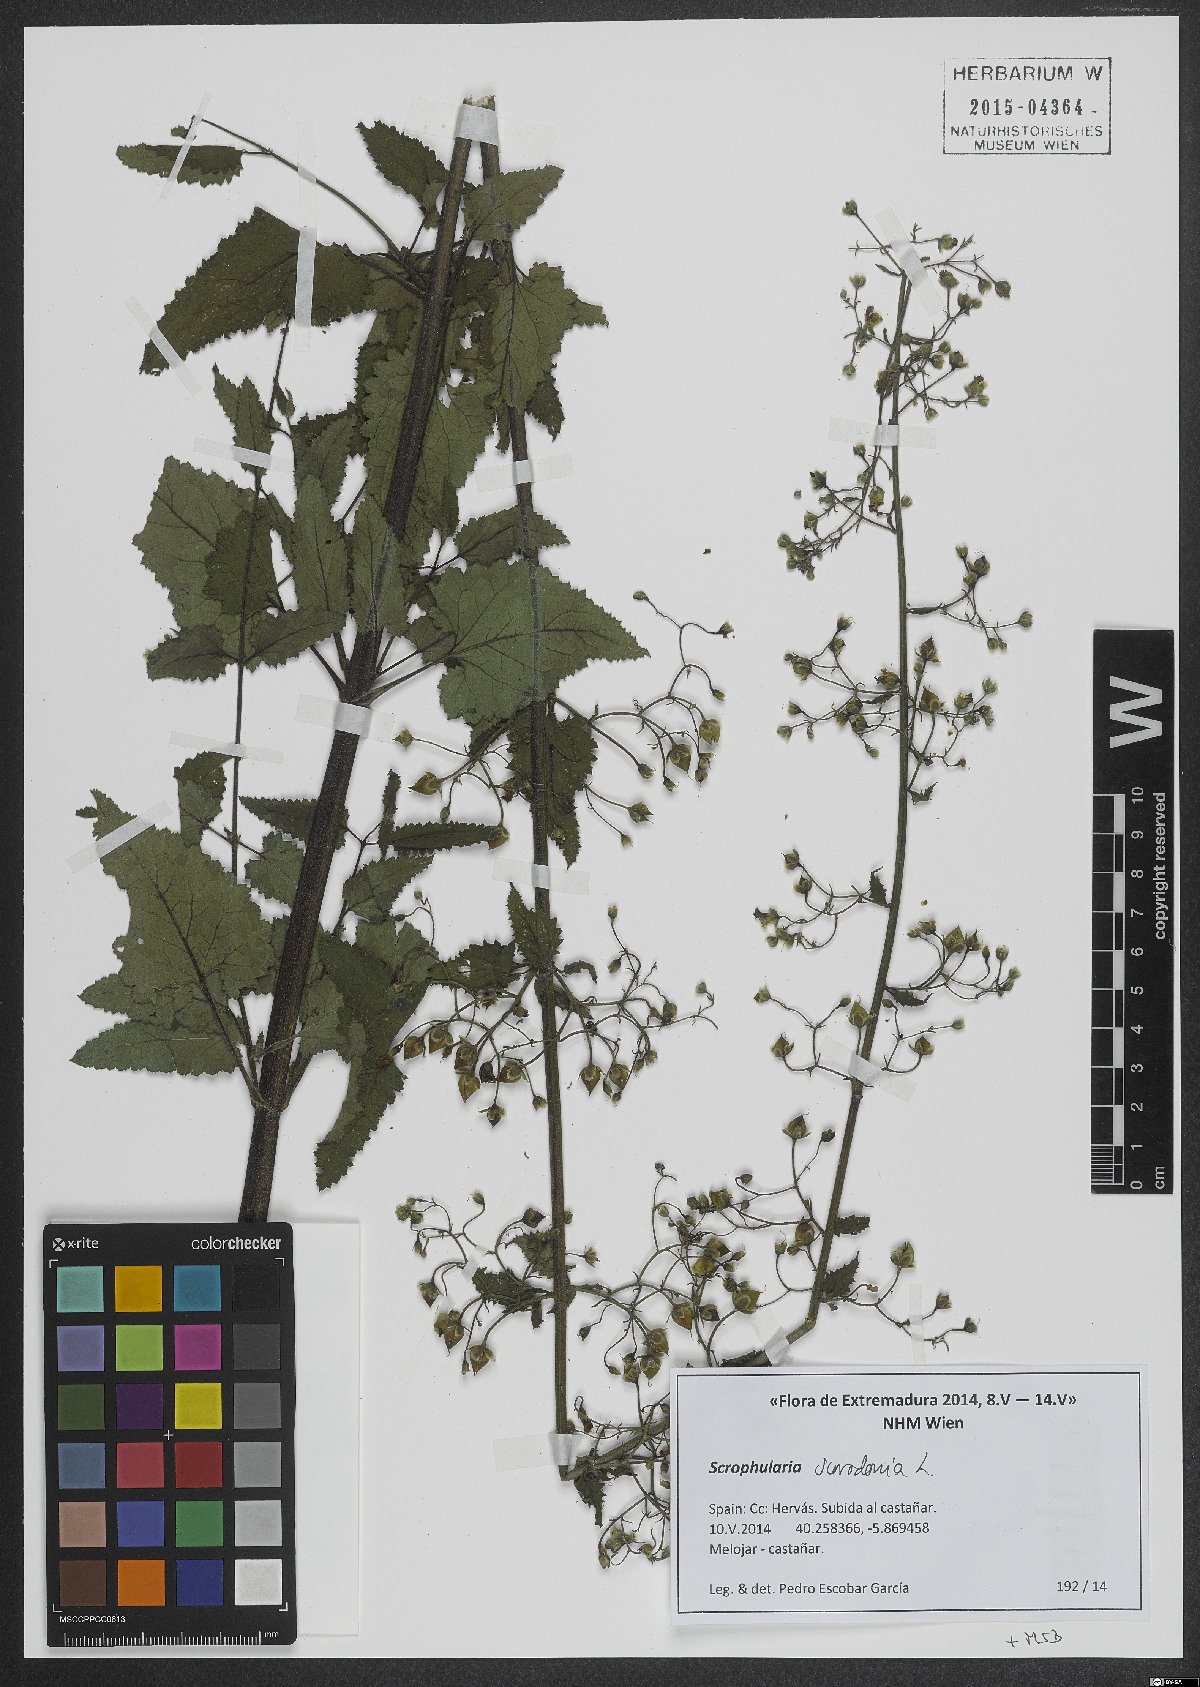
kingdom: Plantae
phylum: Tracheophyta
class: Magnoliopsida
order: Lamiales
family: Scrophulariaceae
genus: Scrophularia
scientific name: Scrophularia scorodonia
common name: Balm-leaved figwort
